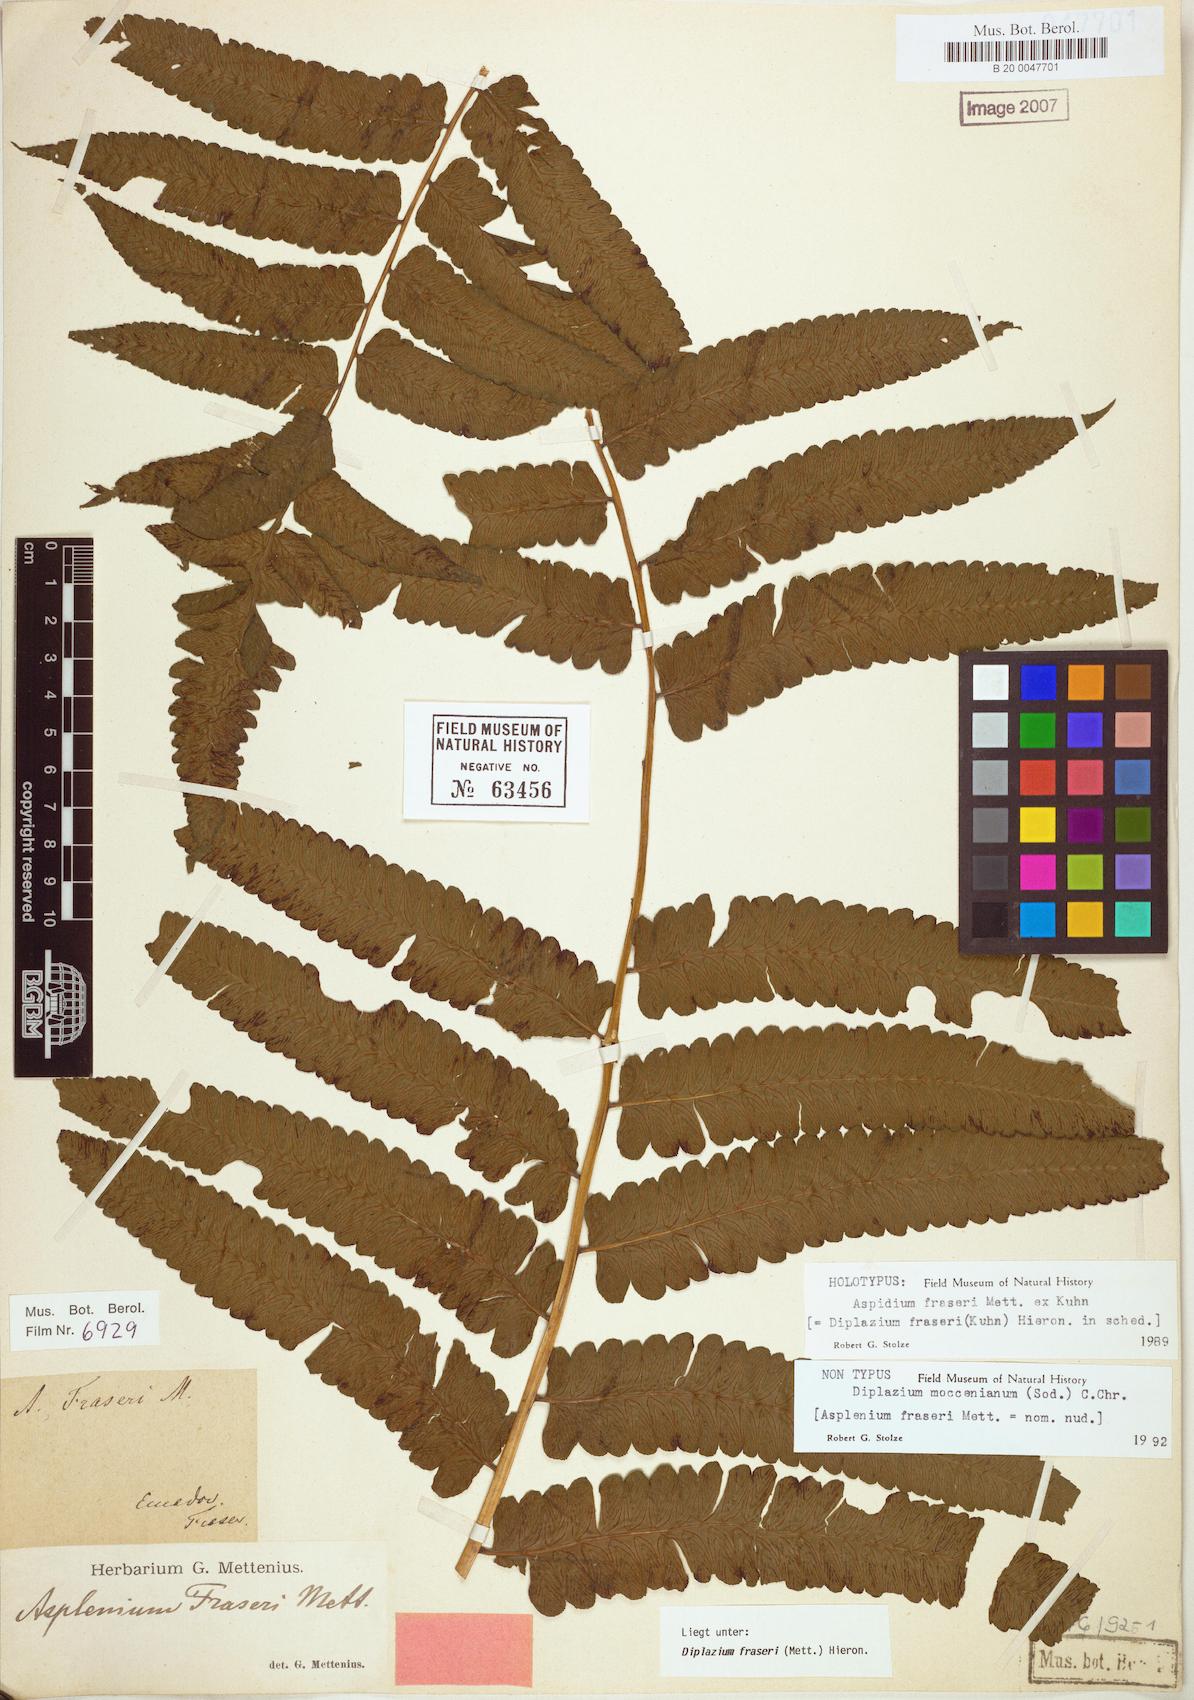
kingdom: Plantae
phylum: Tracheophyta
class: Polypodiopsida
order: Polypodiales
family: Athyriaceae
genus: Diplazium
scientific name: Diplazium moccennianum
